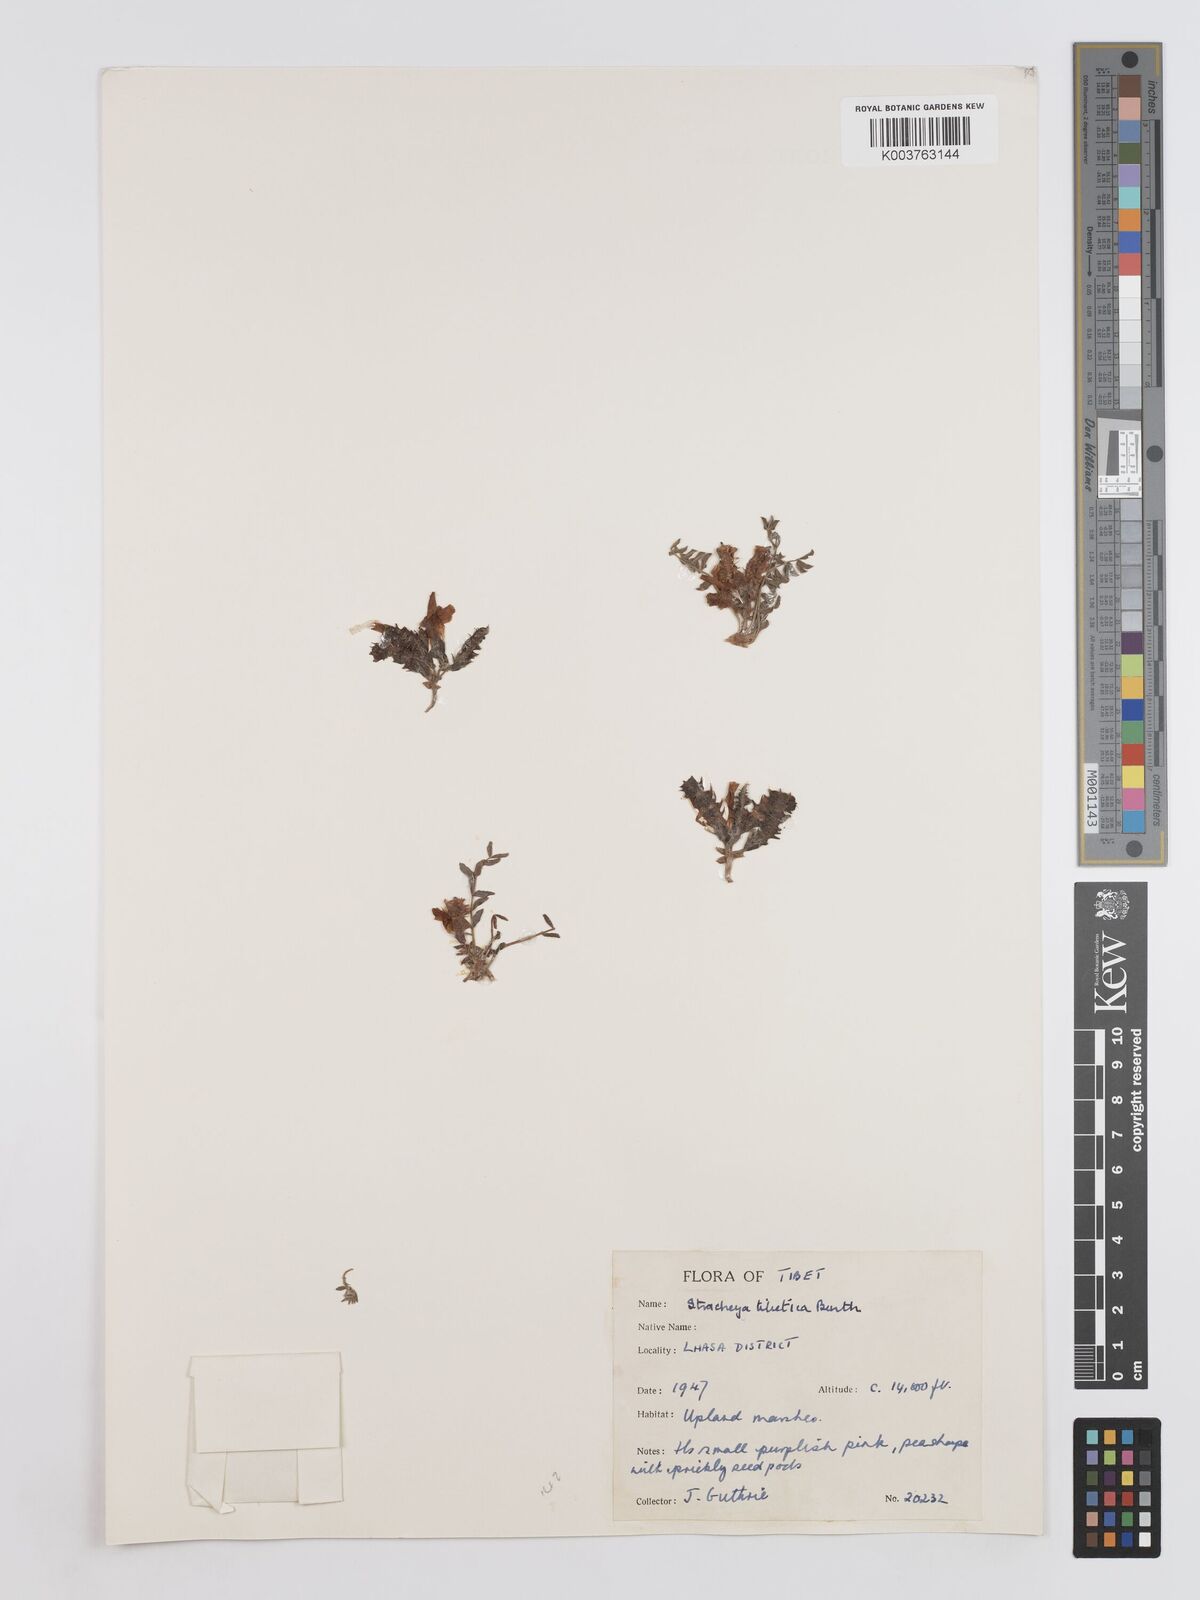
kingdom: Plantae
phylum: Tracheophyta
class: Magnoliopsida
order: Fabales
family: Fabaceae
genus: Hedysarum
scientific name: Hedysarum tibeticum
